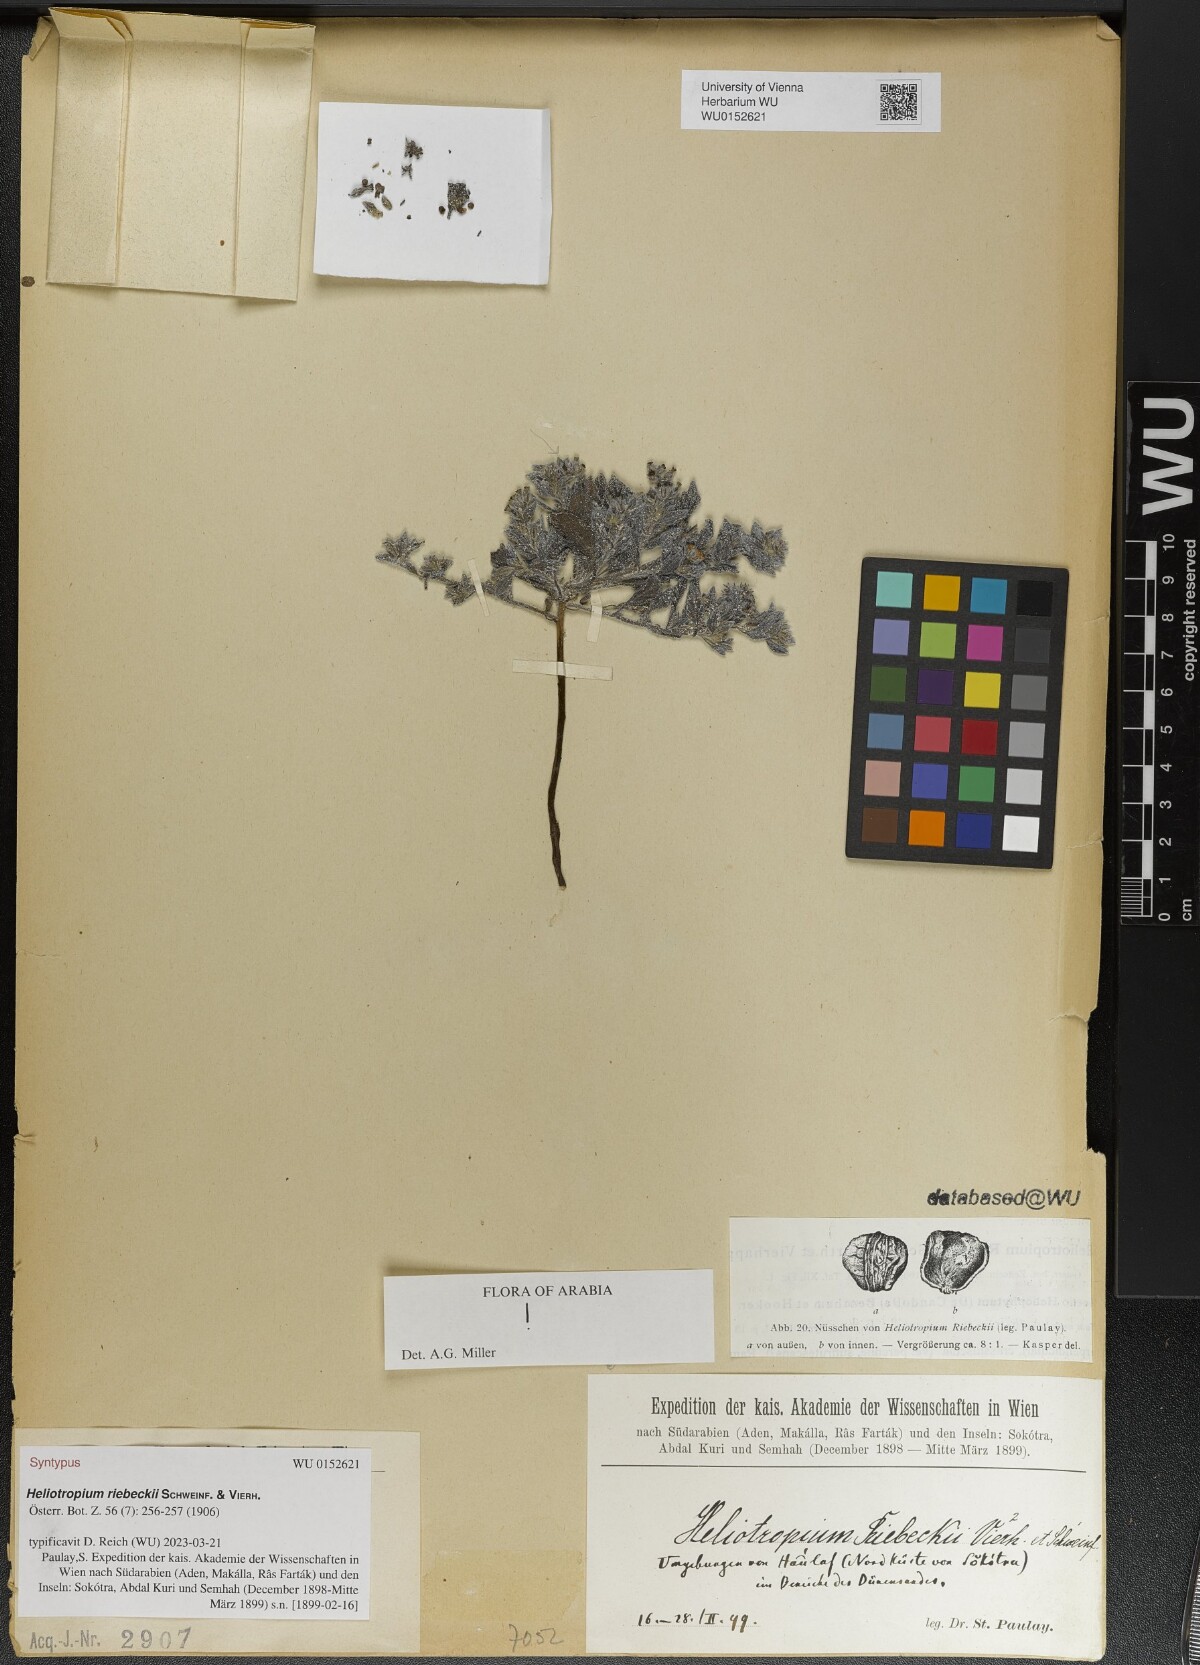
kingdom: Plantae
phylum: Tracheophyta
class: Magnoliopsida
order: Boraginales
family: Heliotropiaceae
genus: Heliotropium
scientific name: Heliotropium riebeckii
